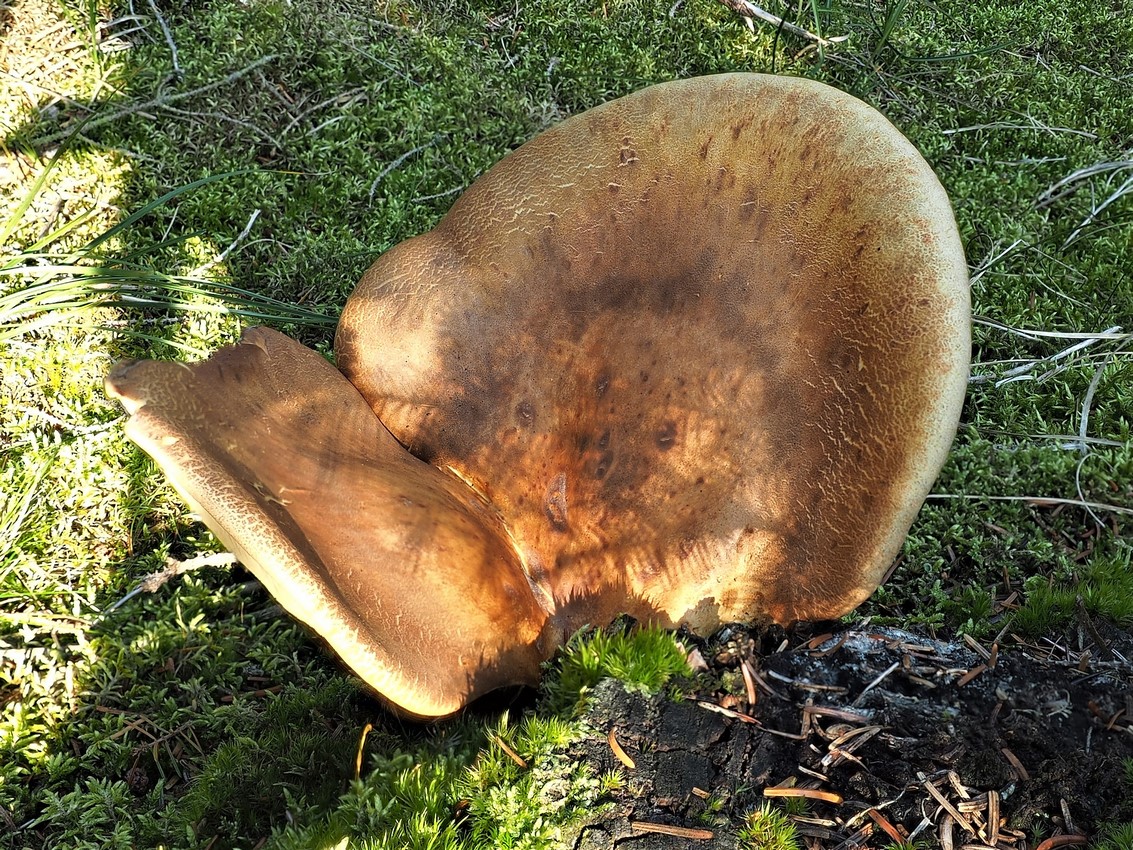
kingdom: Fungi
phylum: Basidiomycota
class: Agaricomycetes
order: Boletales
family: Tapinellaceae
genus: Tapinella
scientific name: Tapinella atrotomentosa
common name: sortfiltet viftesvamp
